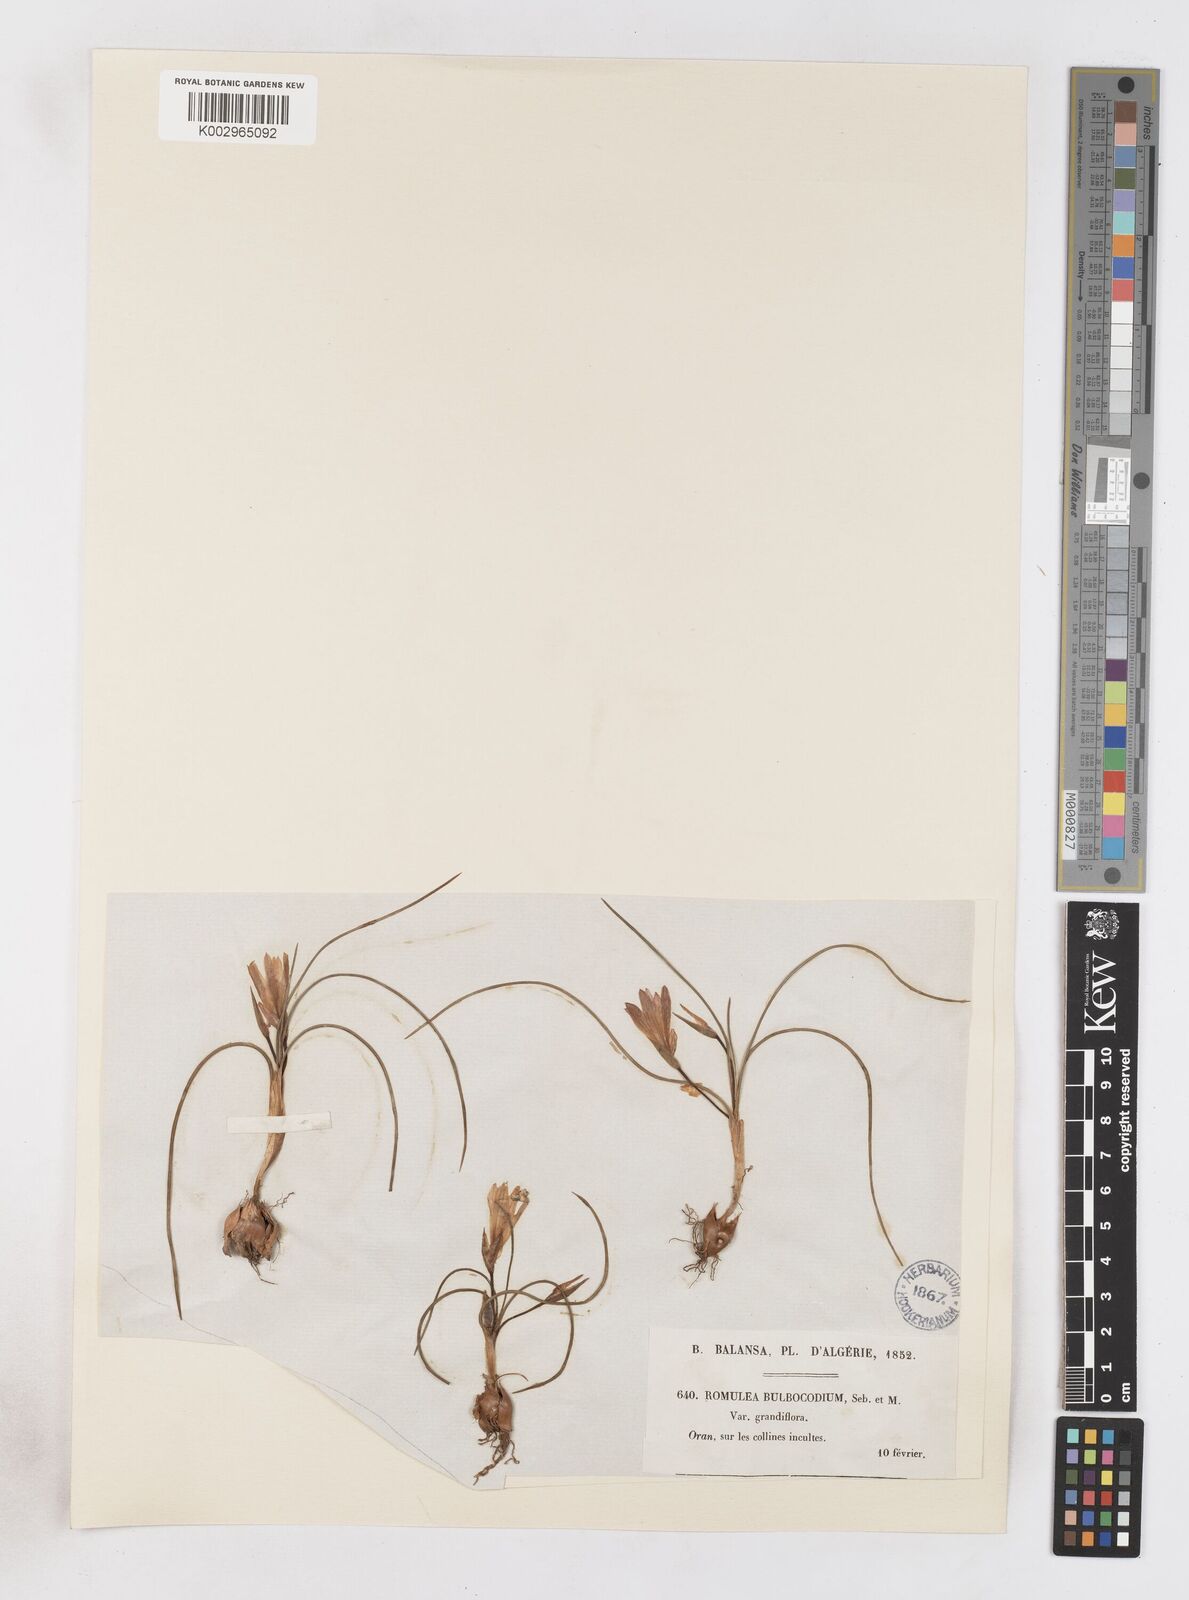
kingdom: Plantae
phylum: Tracheophyta
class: Liliopsida
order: Asparagales
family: Iridaceae
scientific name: Iridaceae
